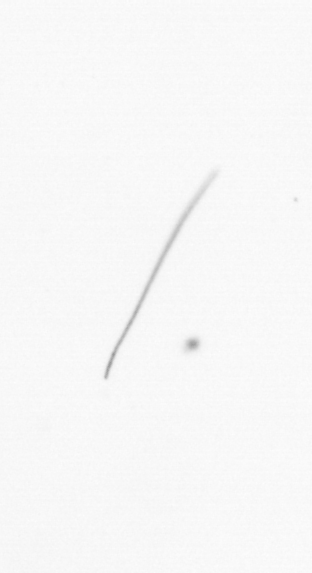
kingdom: Chromista
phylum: Ochrophyta
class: Bacillariophyceae
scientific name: Bacillariophyceae
